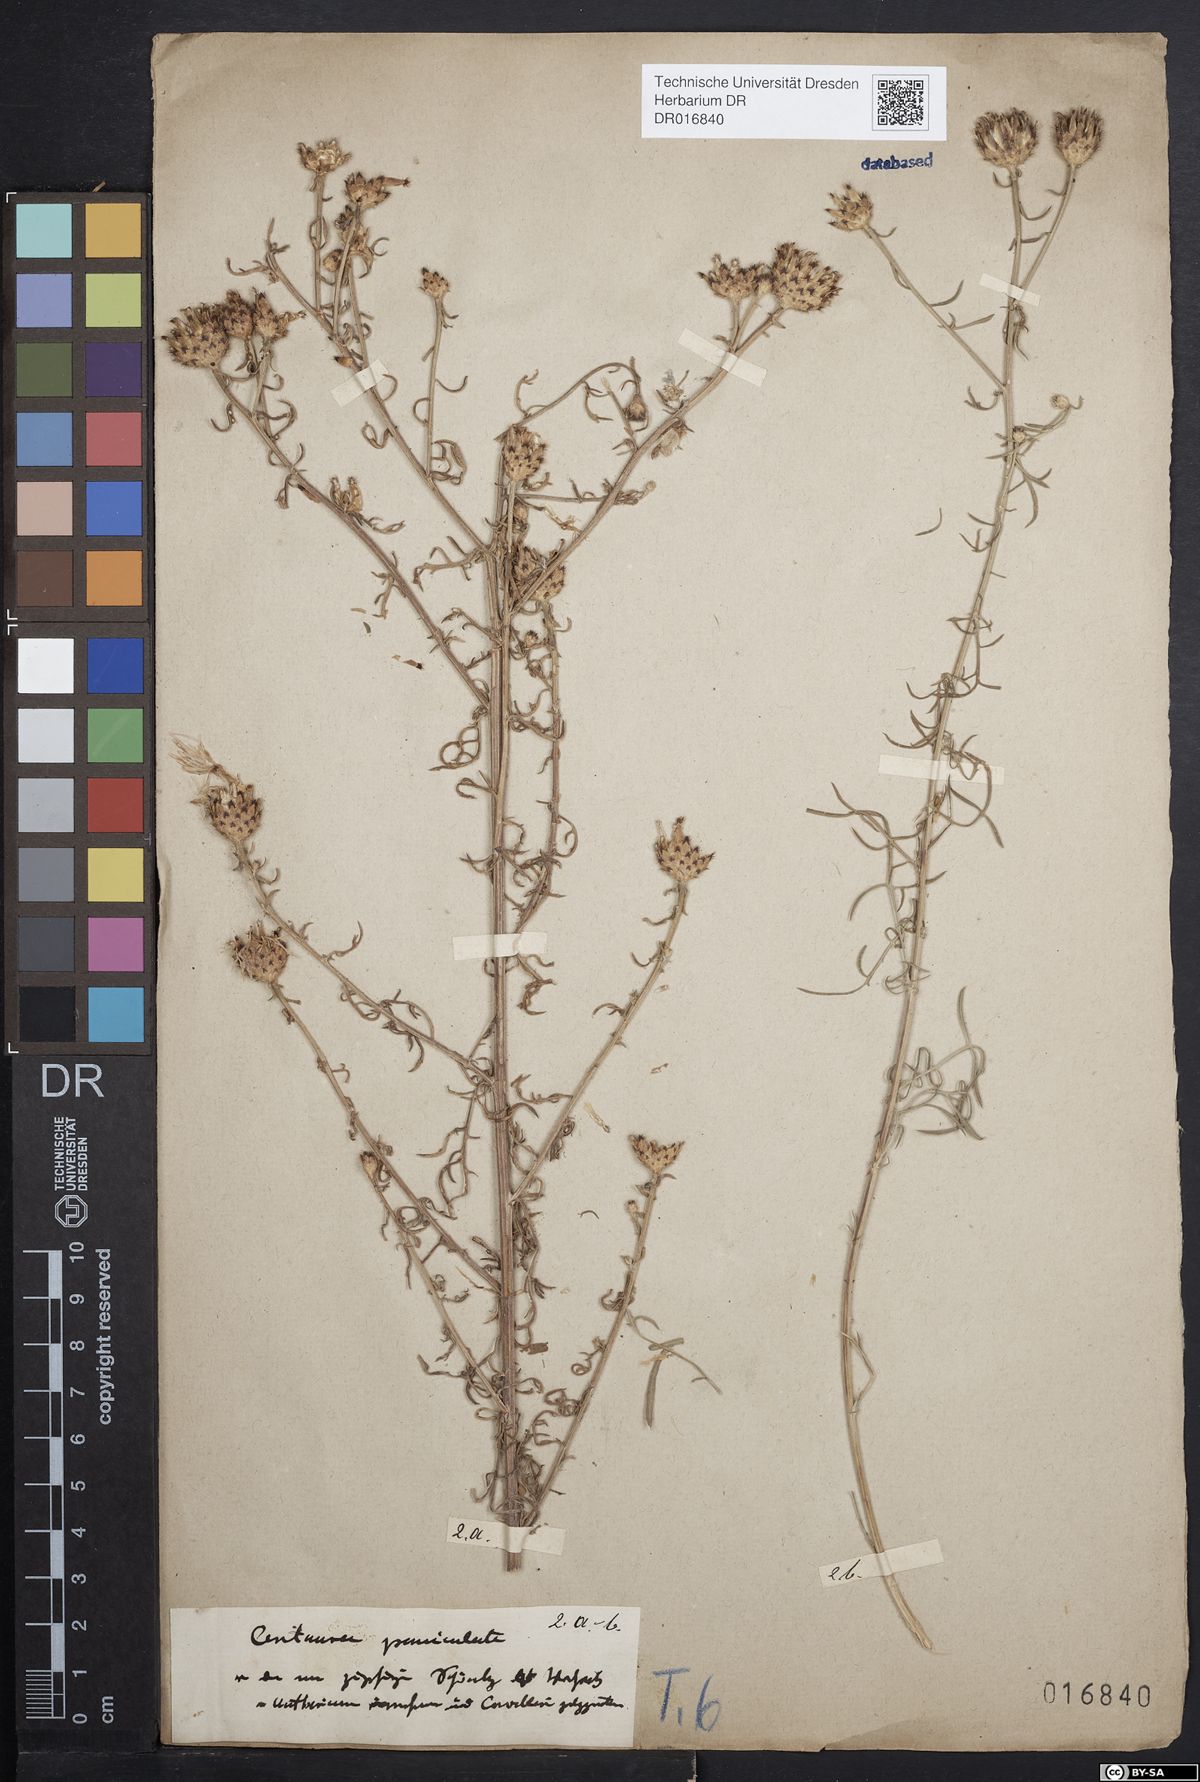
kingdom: Plantae
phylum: Tracheophyta
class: Magnoliopsida
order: Asterales
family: Asteraceae
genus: Centaurea
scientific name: Centaurea stoebe
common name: Spotted knapweed
